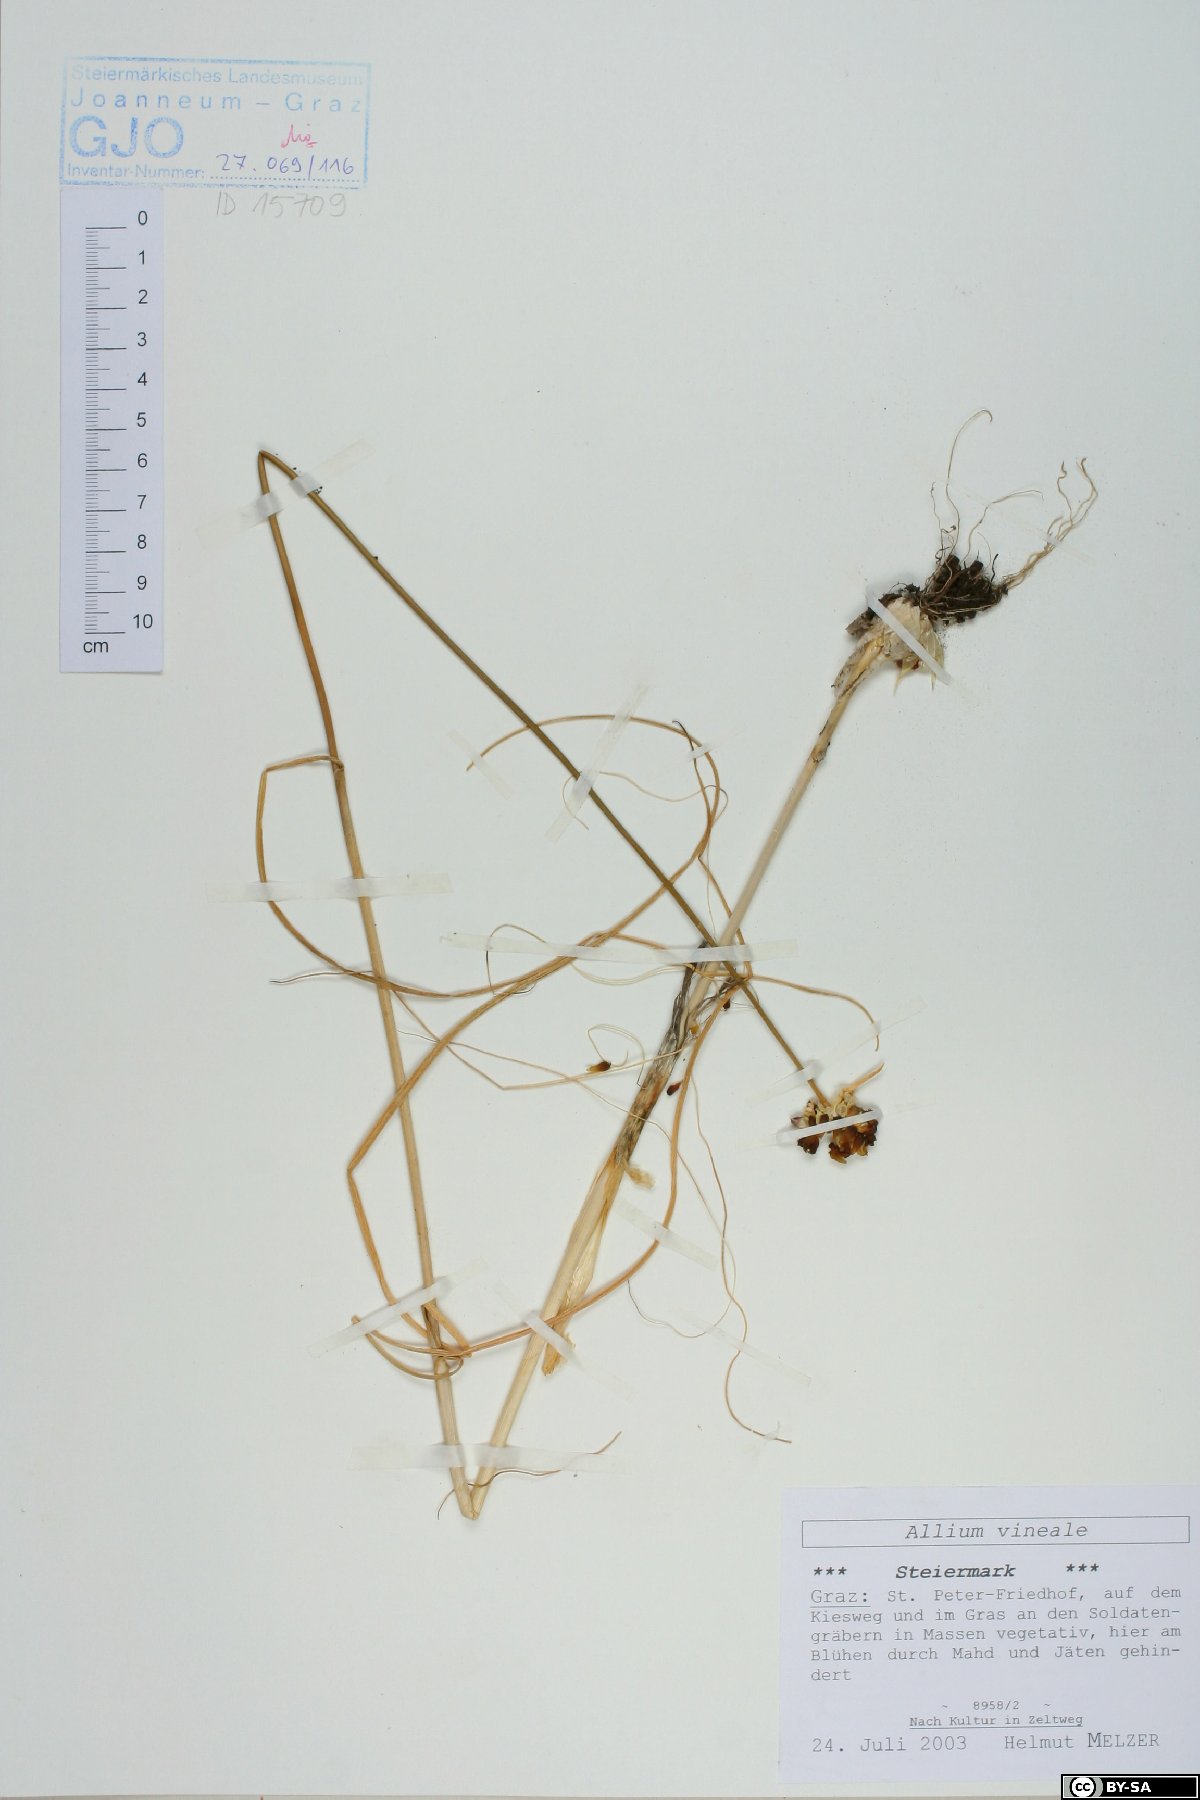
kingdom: Plantae
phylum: Tracheophyta
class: Liliopsida
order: Asparagales
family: Amaryllidaceae
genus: Allium
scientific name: Allium vineale
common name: Crow garlic
